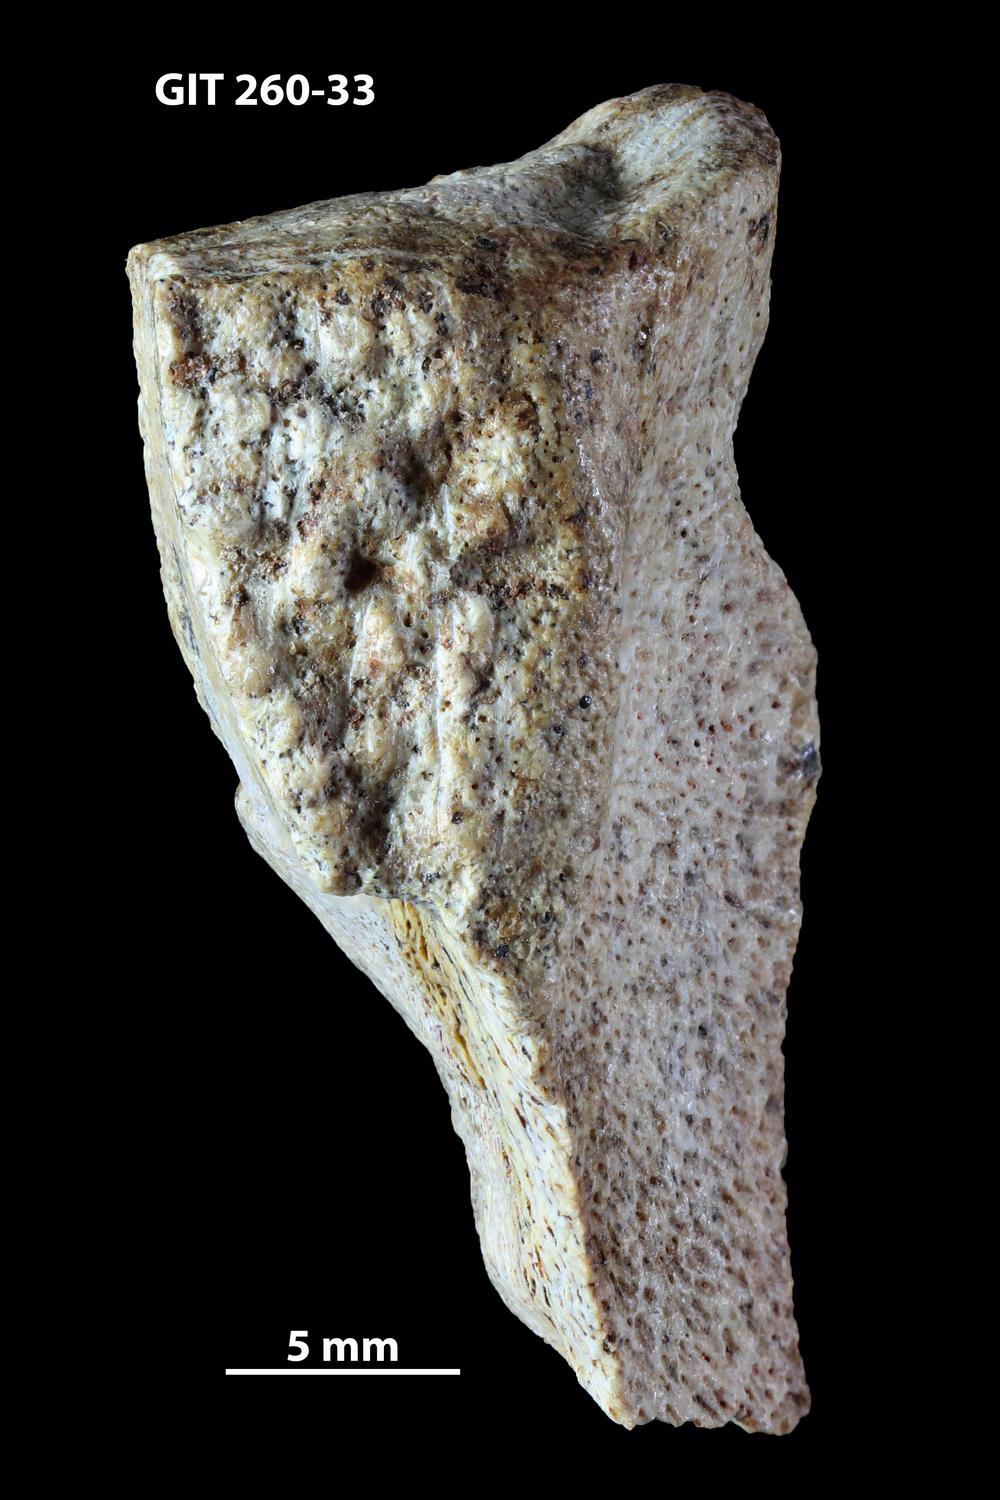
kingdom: Animalia
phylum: Chordata
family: Homostiidae
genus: Homostius
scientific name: Homostius
